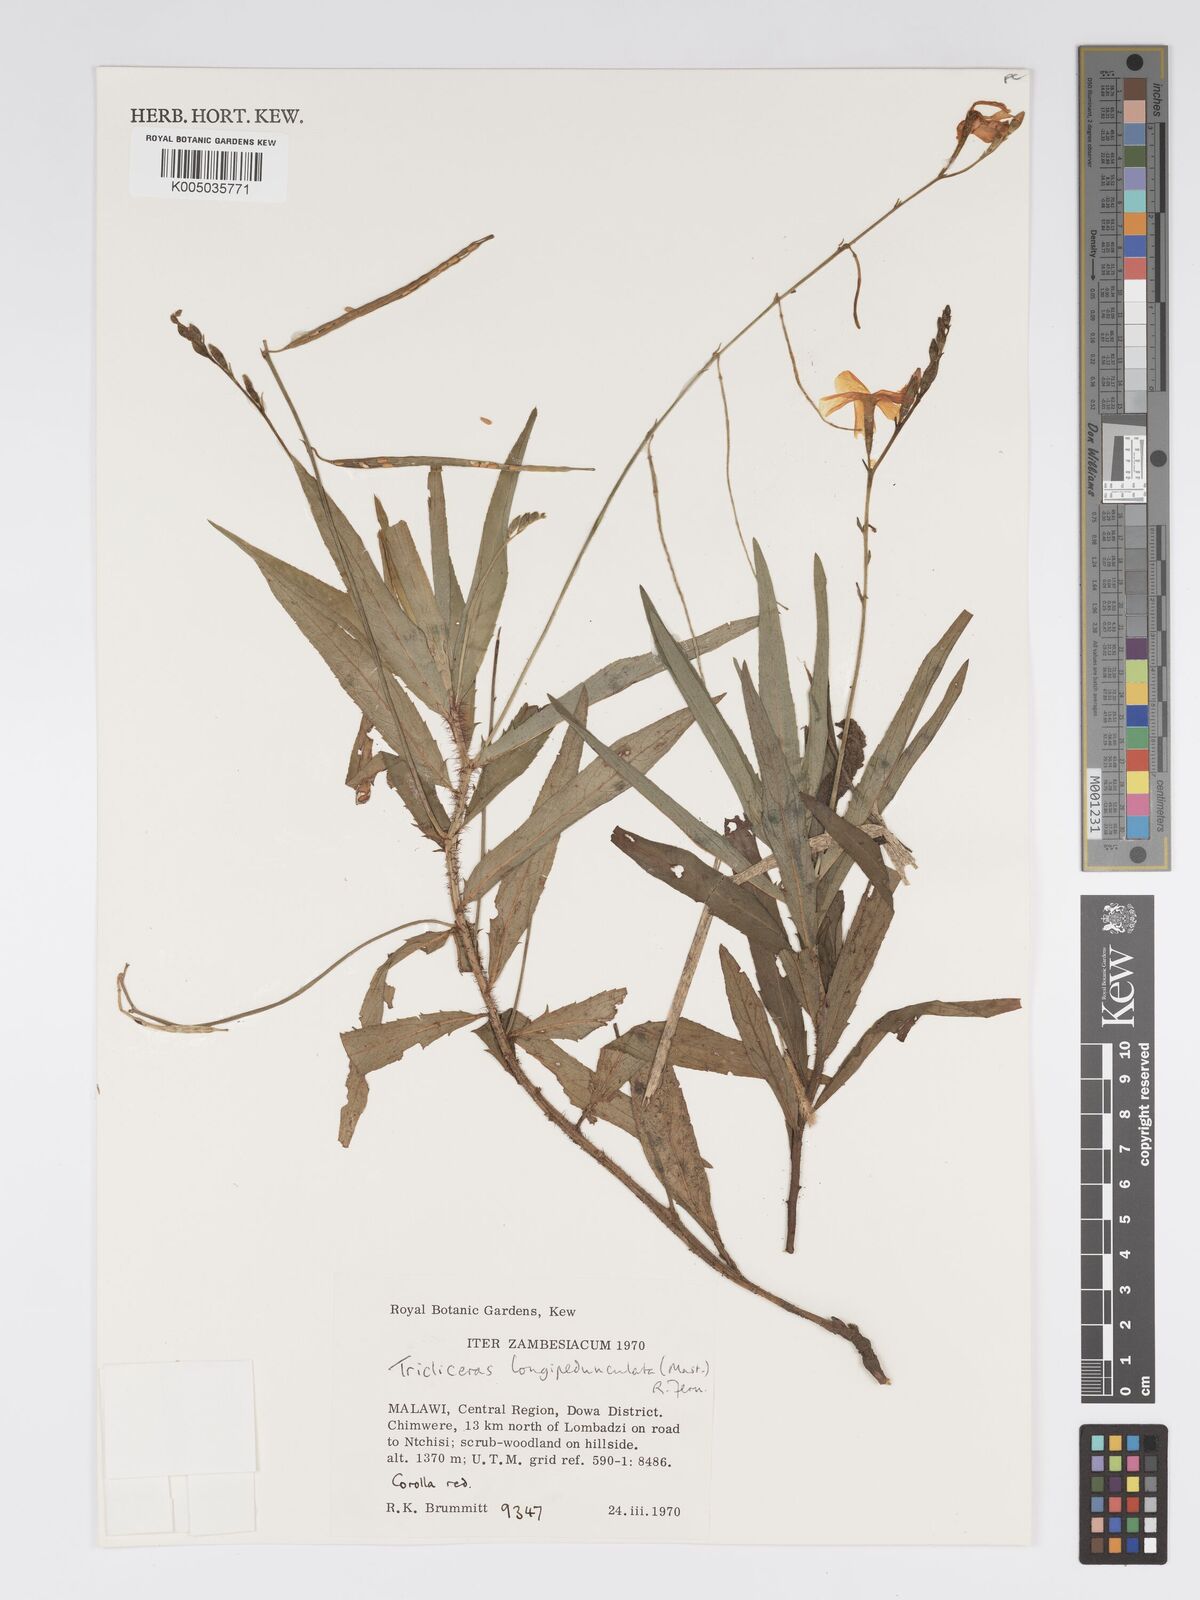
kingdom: Plantae
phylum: Tracheophyta
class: Magnoliopsida
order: Malpighiales
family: Turneraceae
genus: Tricliceras
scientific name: Tricliceras longepedunculatum
